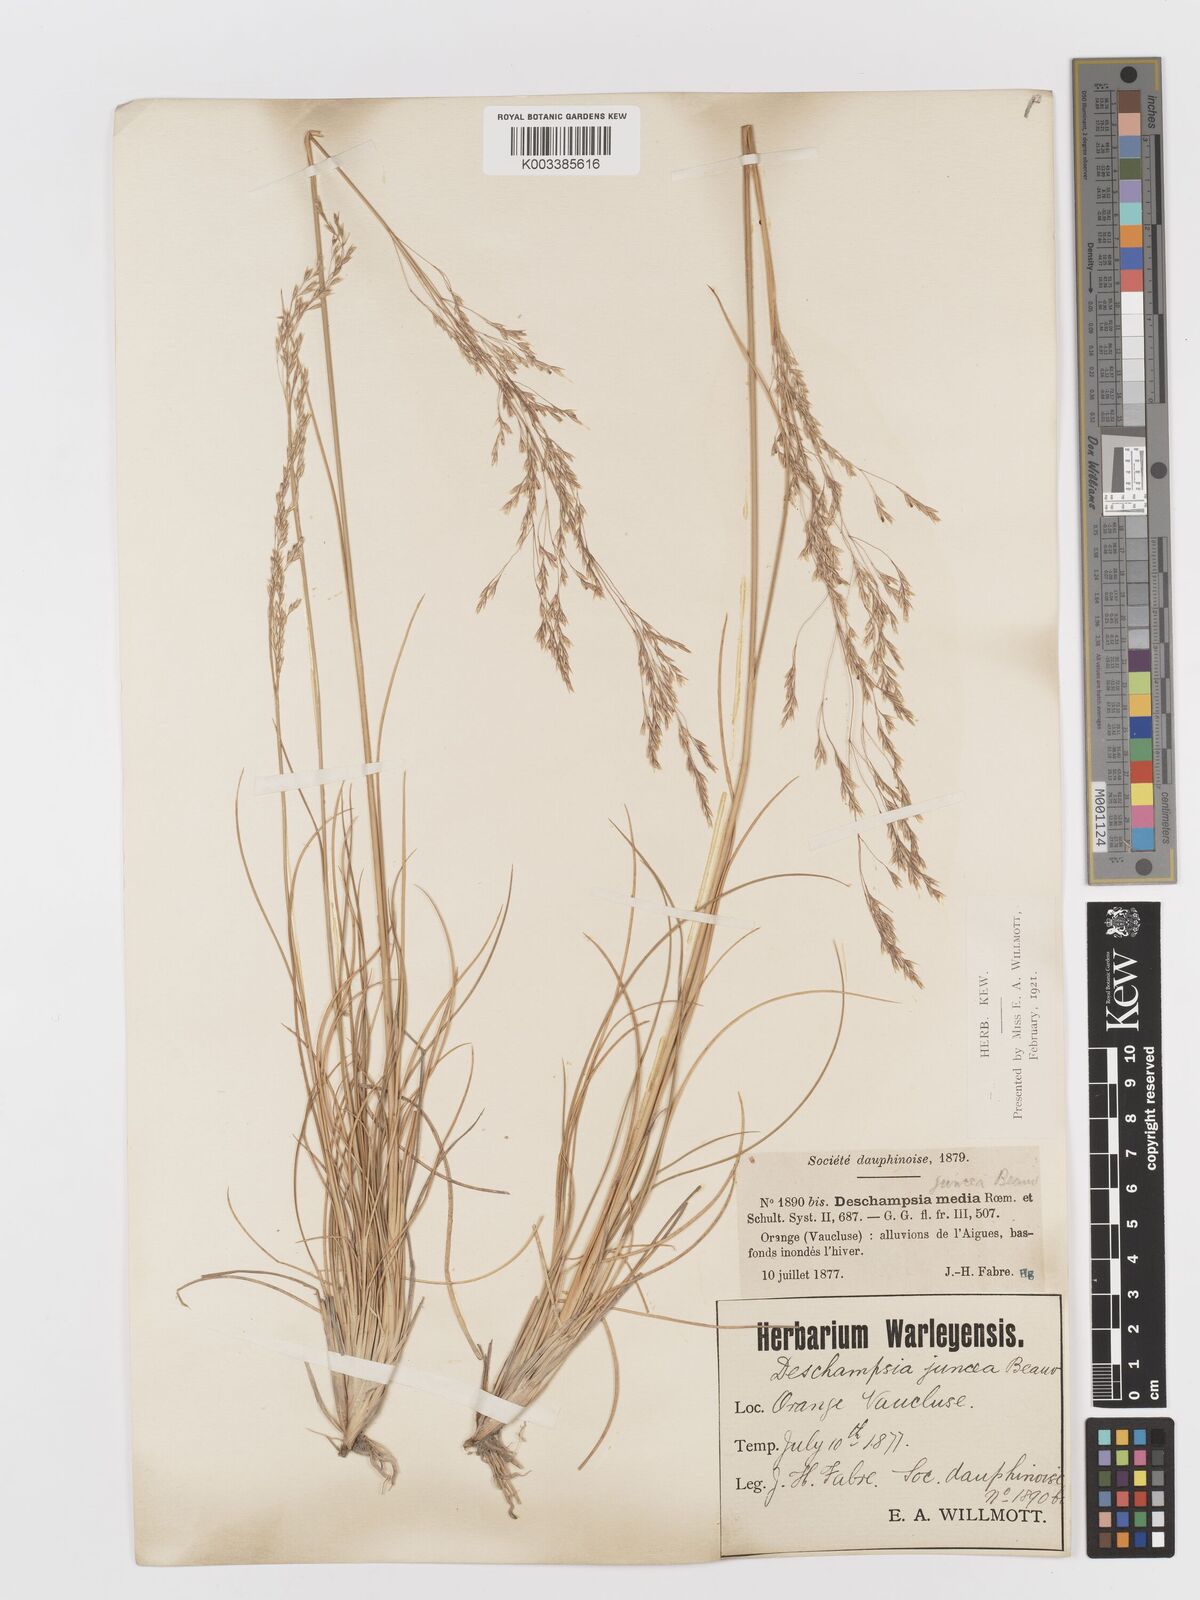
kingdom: Plantae
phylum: Tracheophyta
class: Liliopsida
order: Poales
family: Poaceae
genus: Deschampsia
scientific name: Deschampsia media
